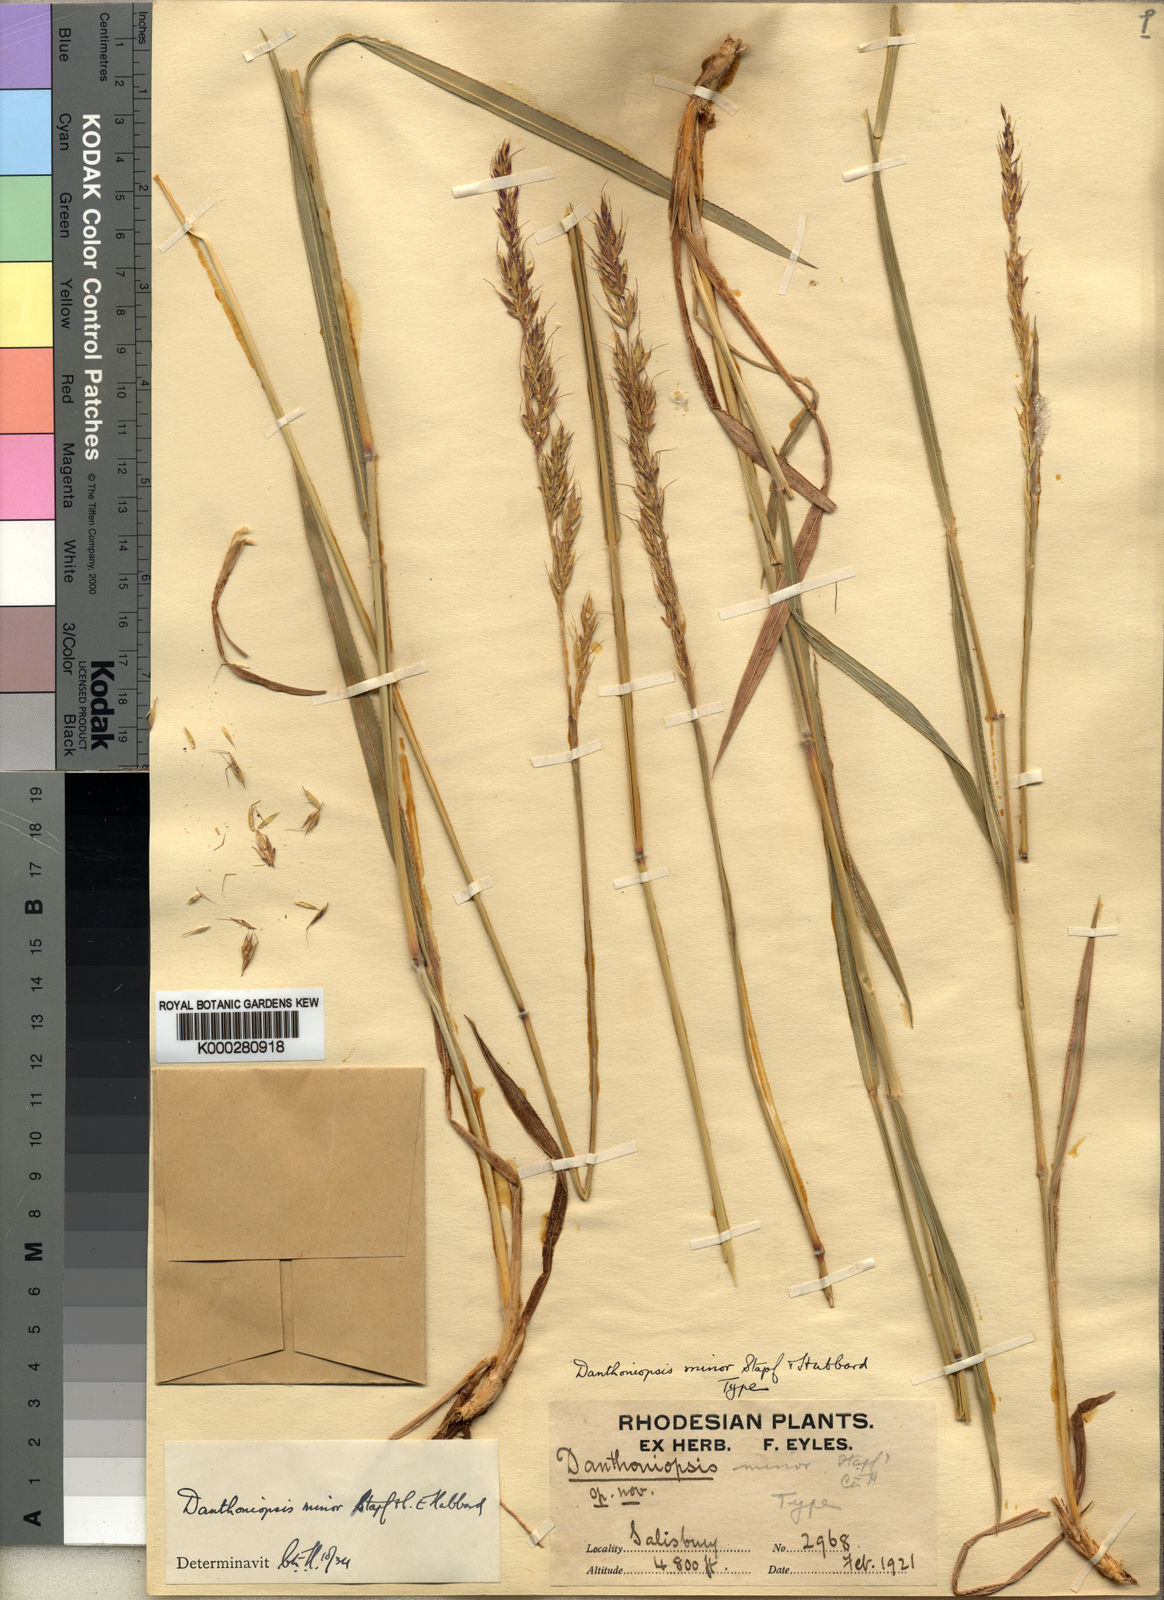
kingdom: Plantae
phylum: Tracheophyta
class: Liliopsida
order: Poales
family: Poaceae
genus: Danthoniopsis
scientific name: Danthoniopsis viridis
